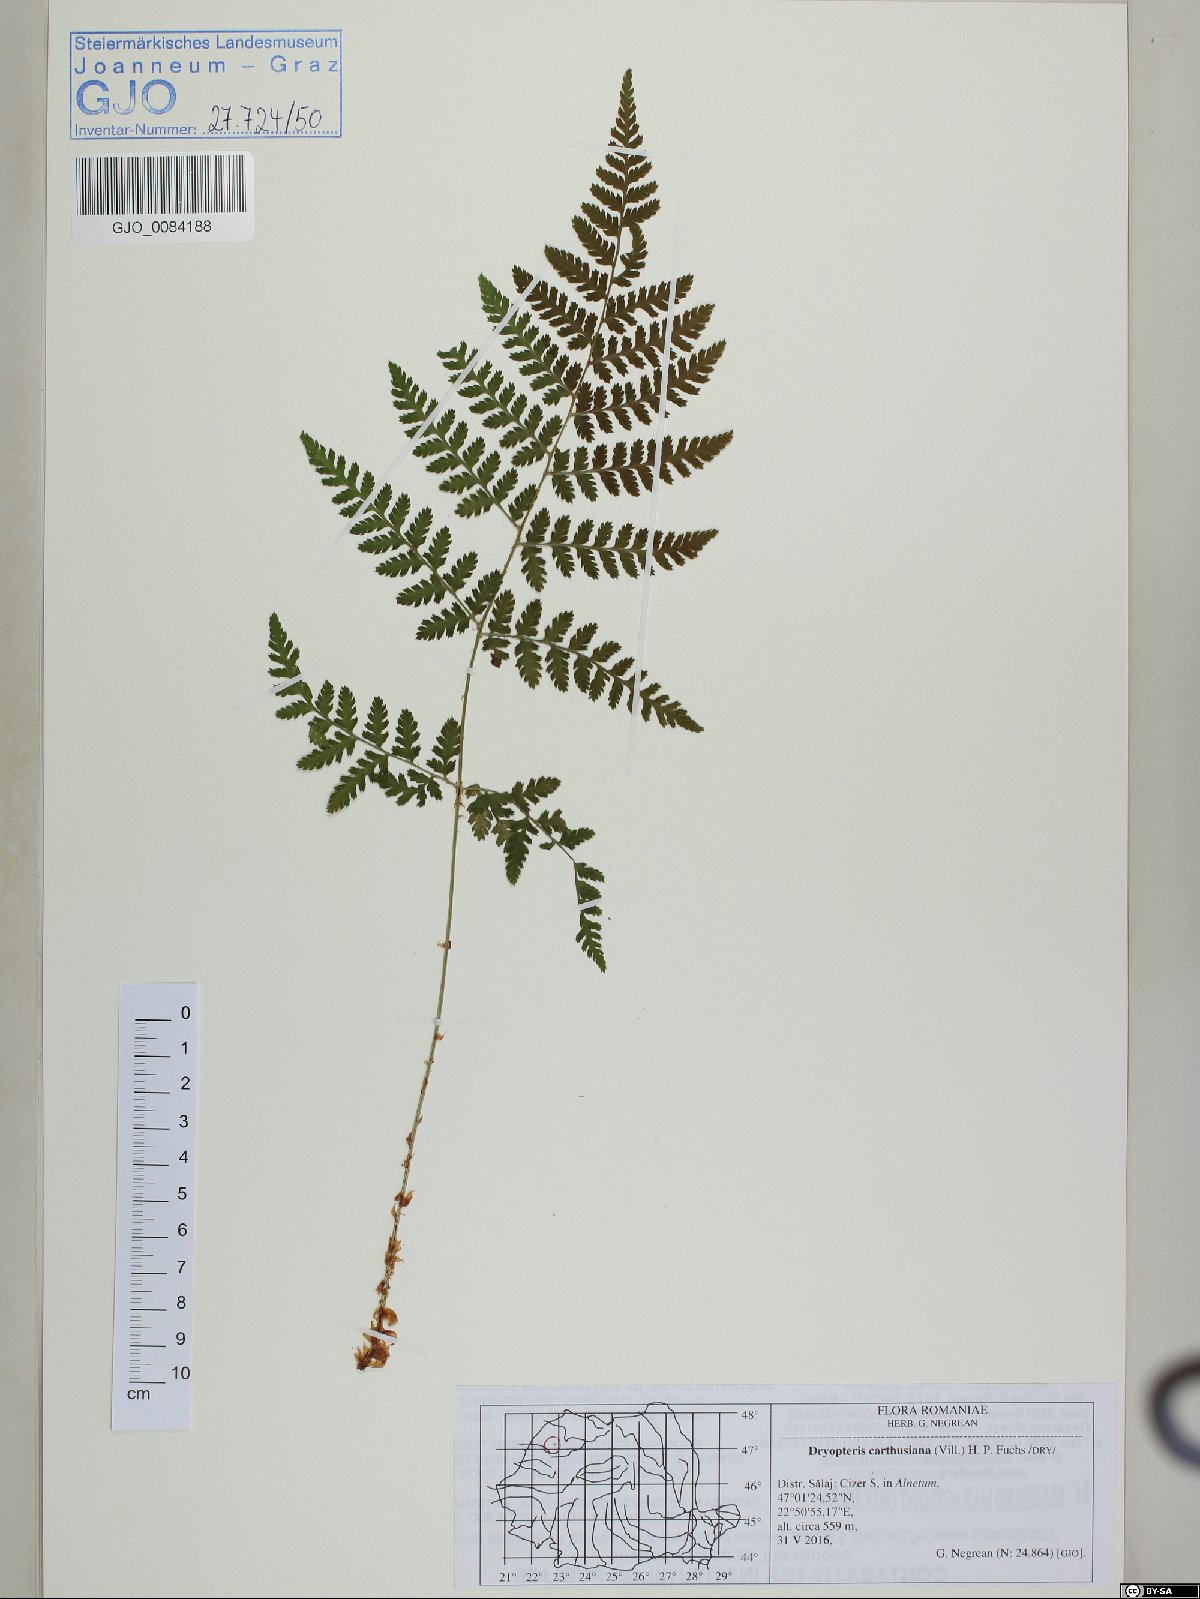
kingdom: Plantae
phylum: Tracheophyta
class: Polypodiopsida
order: Polypodiales
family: Dryopteridaceae
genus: Dryopteris
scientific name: Dryopteris carthusiana
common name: Narrow buckler-fern
